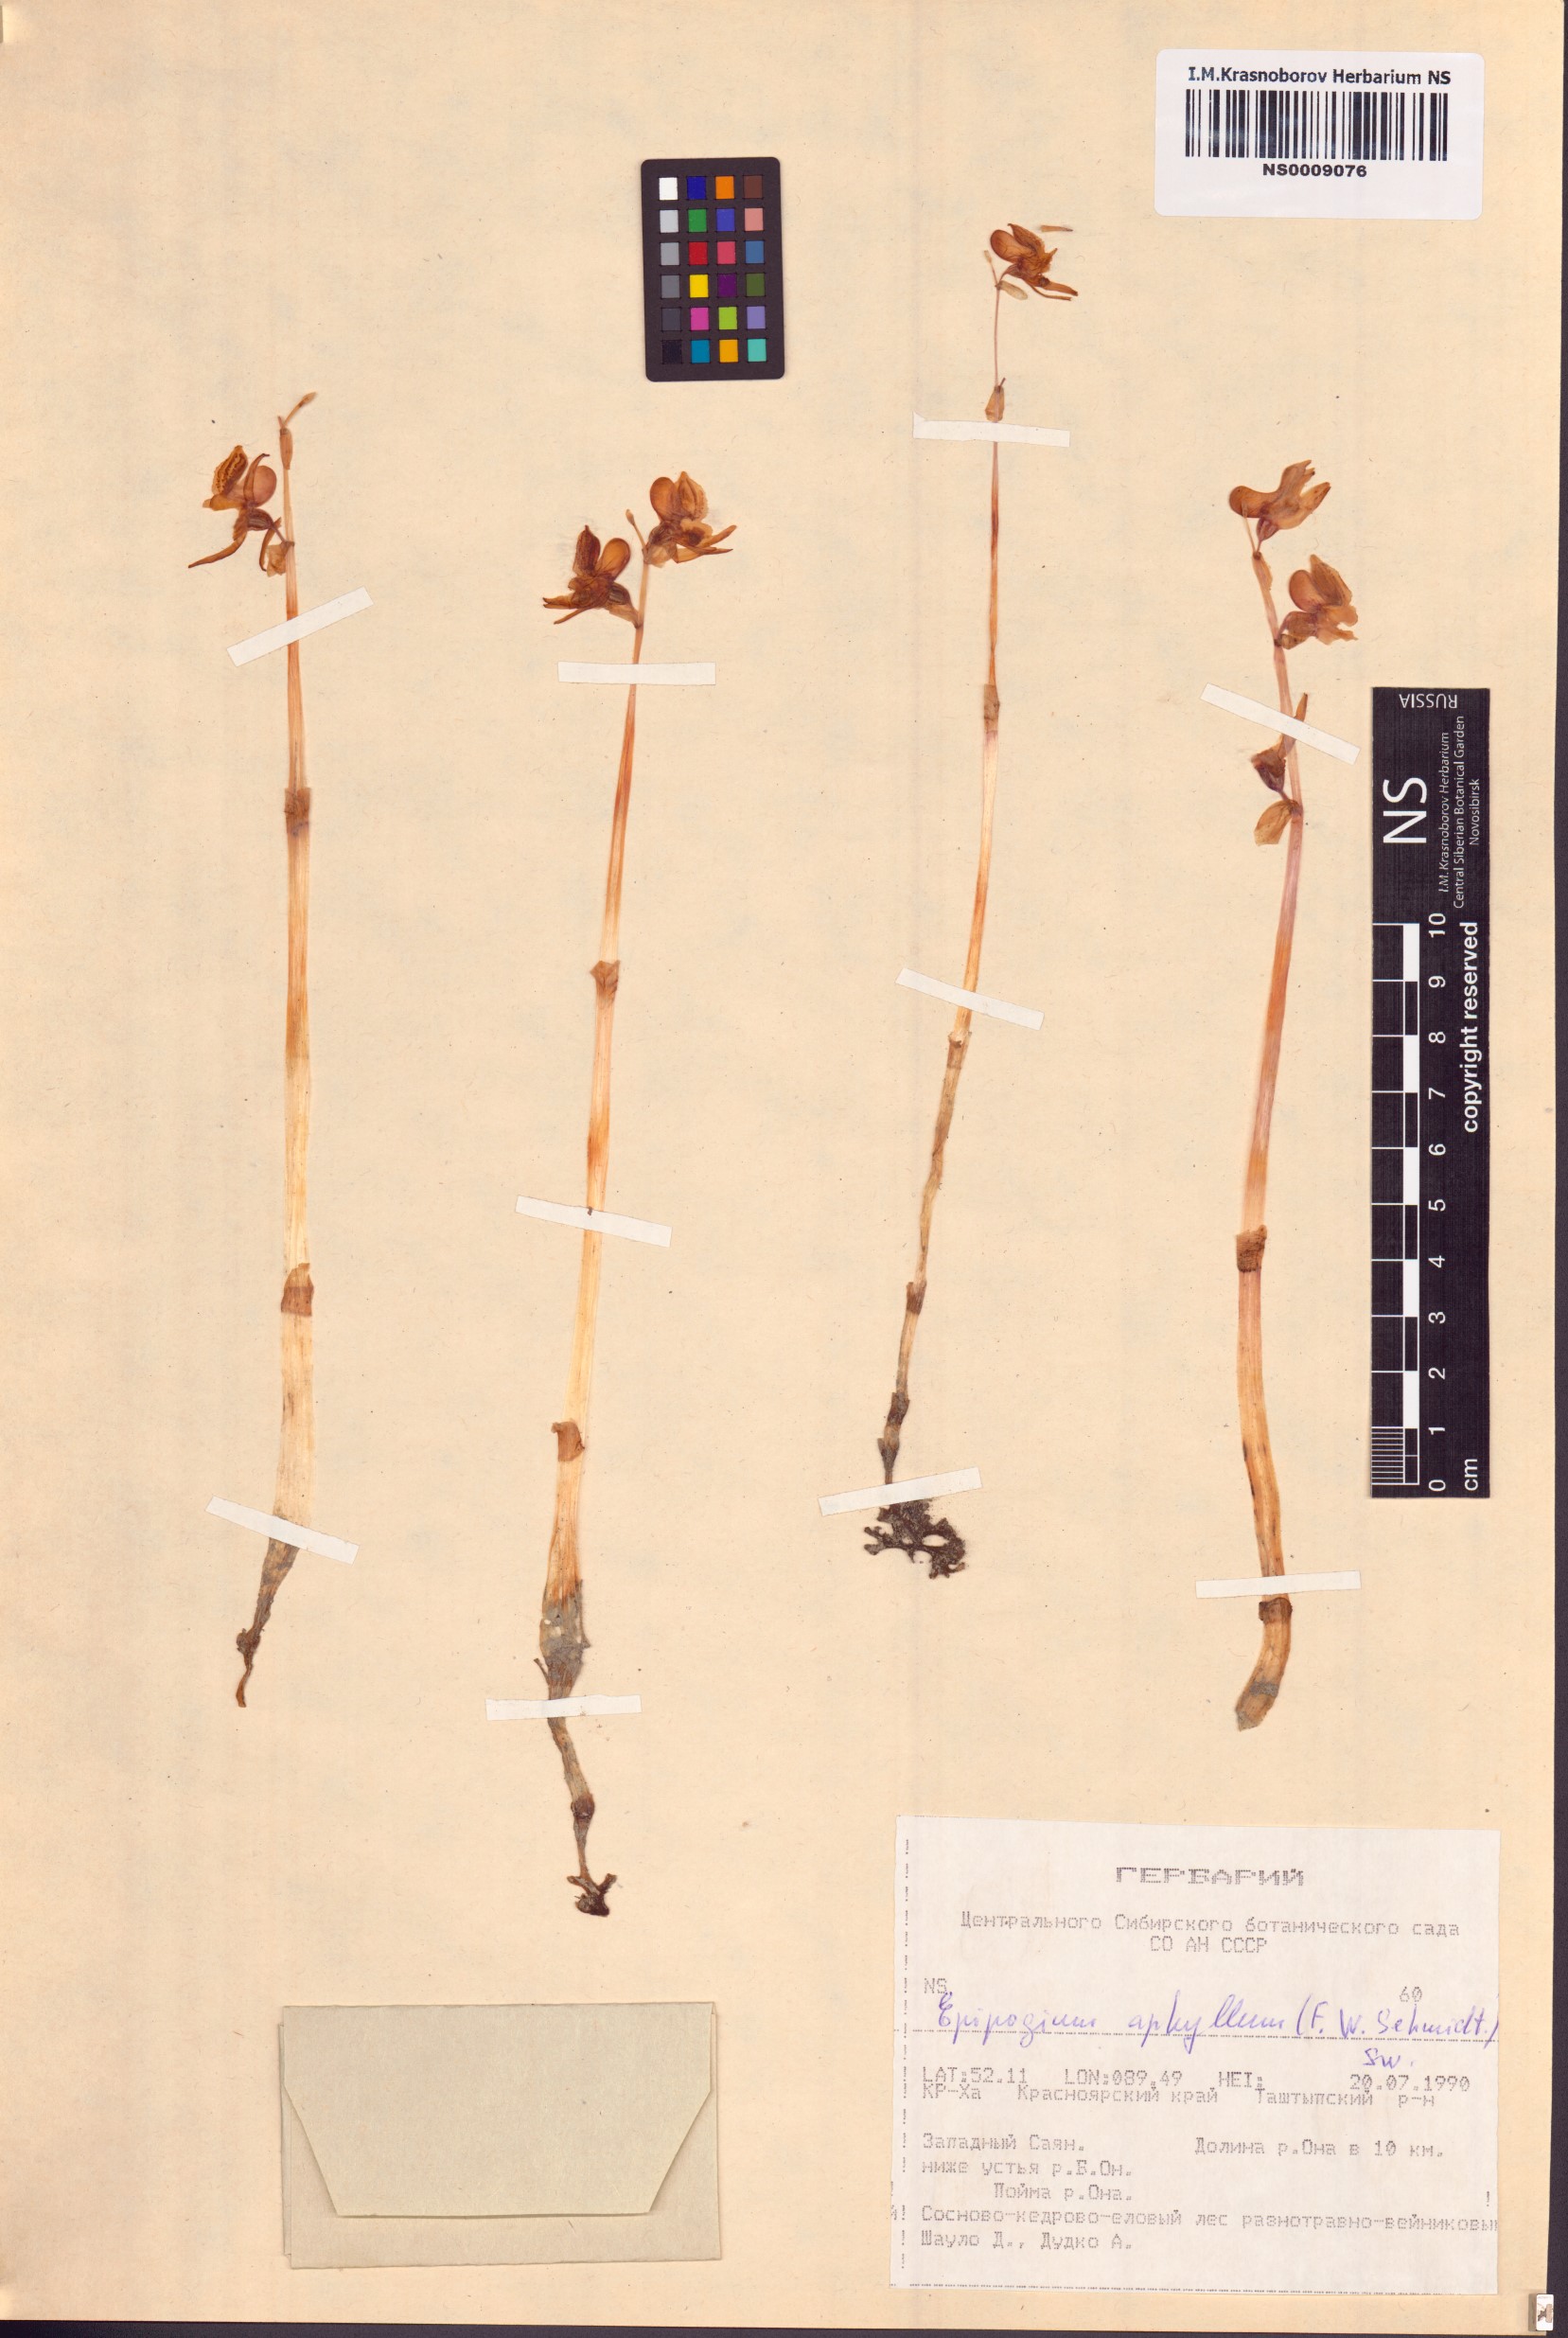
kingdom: Plantae
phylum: Tracheophyta
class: Liliopsida
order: Asparagales
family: Orchidaceae
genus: Epipogium
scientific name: Epipogium aphyllum
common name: Ghost orchid
